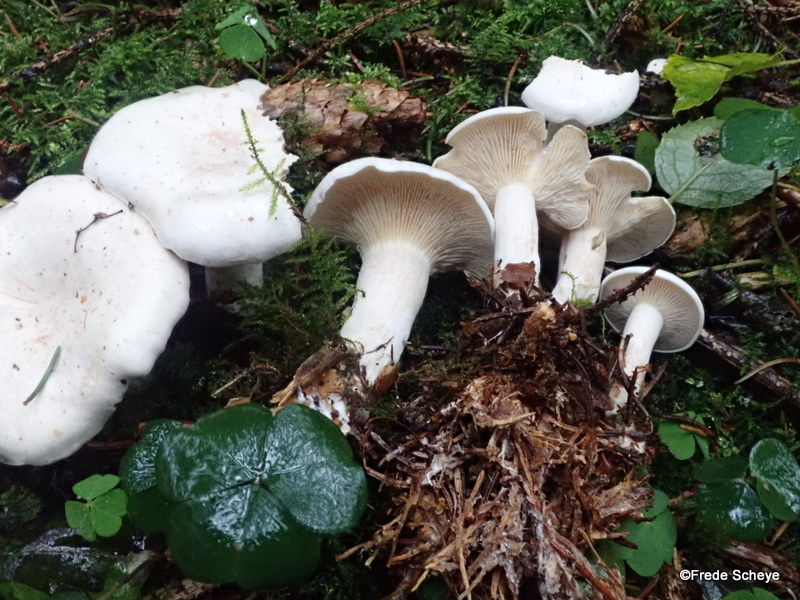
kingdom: Fungi
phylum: Basidiomycota
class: Agaricomycetes
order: Agaricales
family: Tricholomataceae
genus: Clitocybe
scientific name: Clitocybe nebularis
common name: tåge-tragthat
